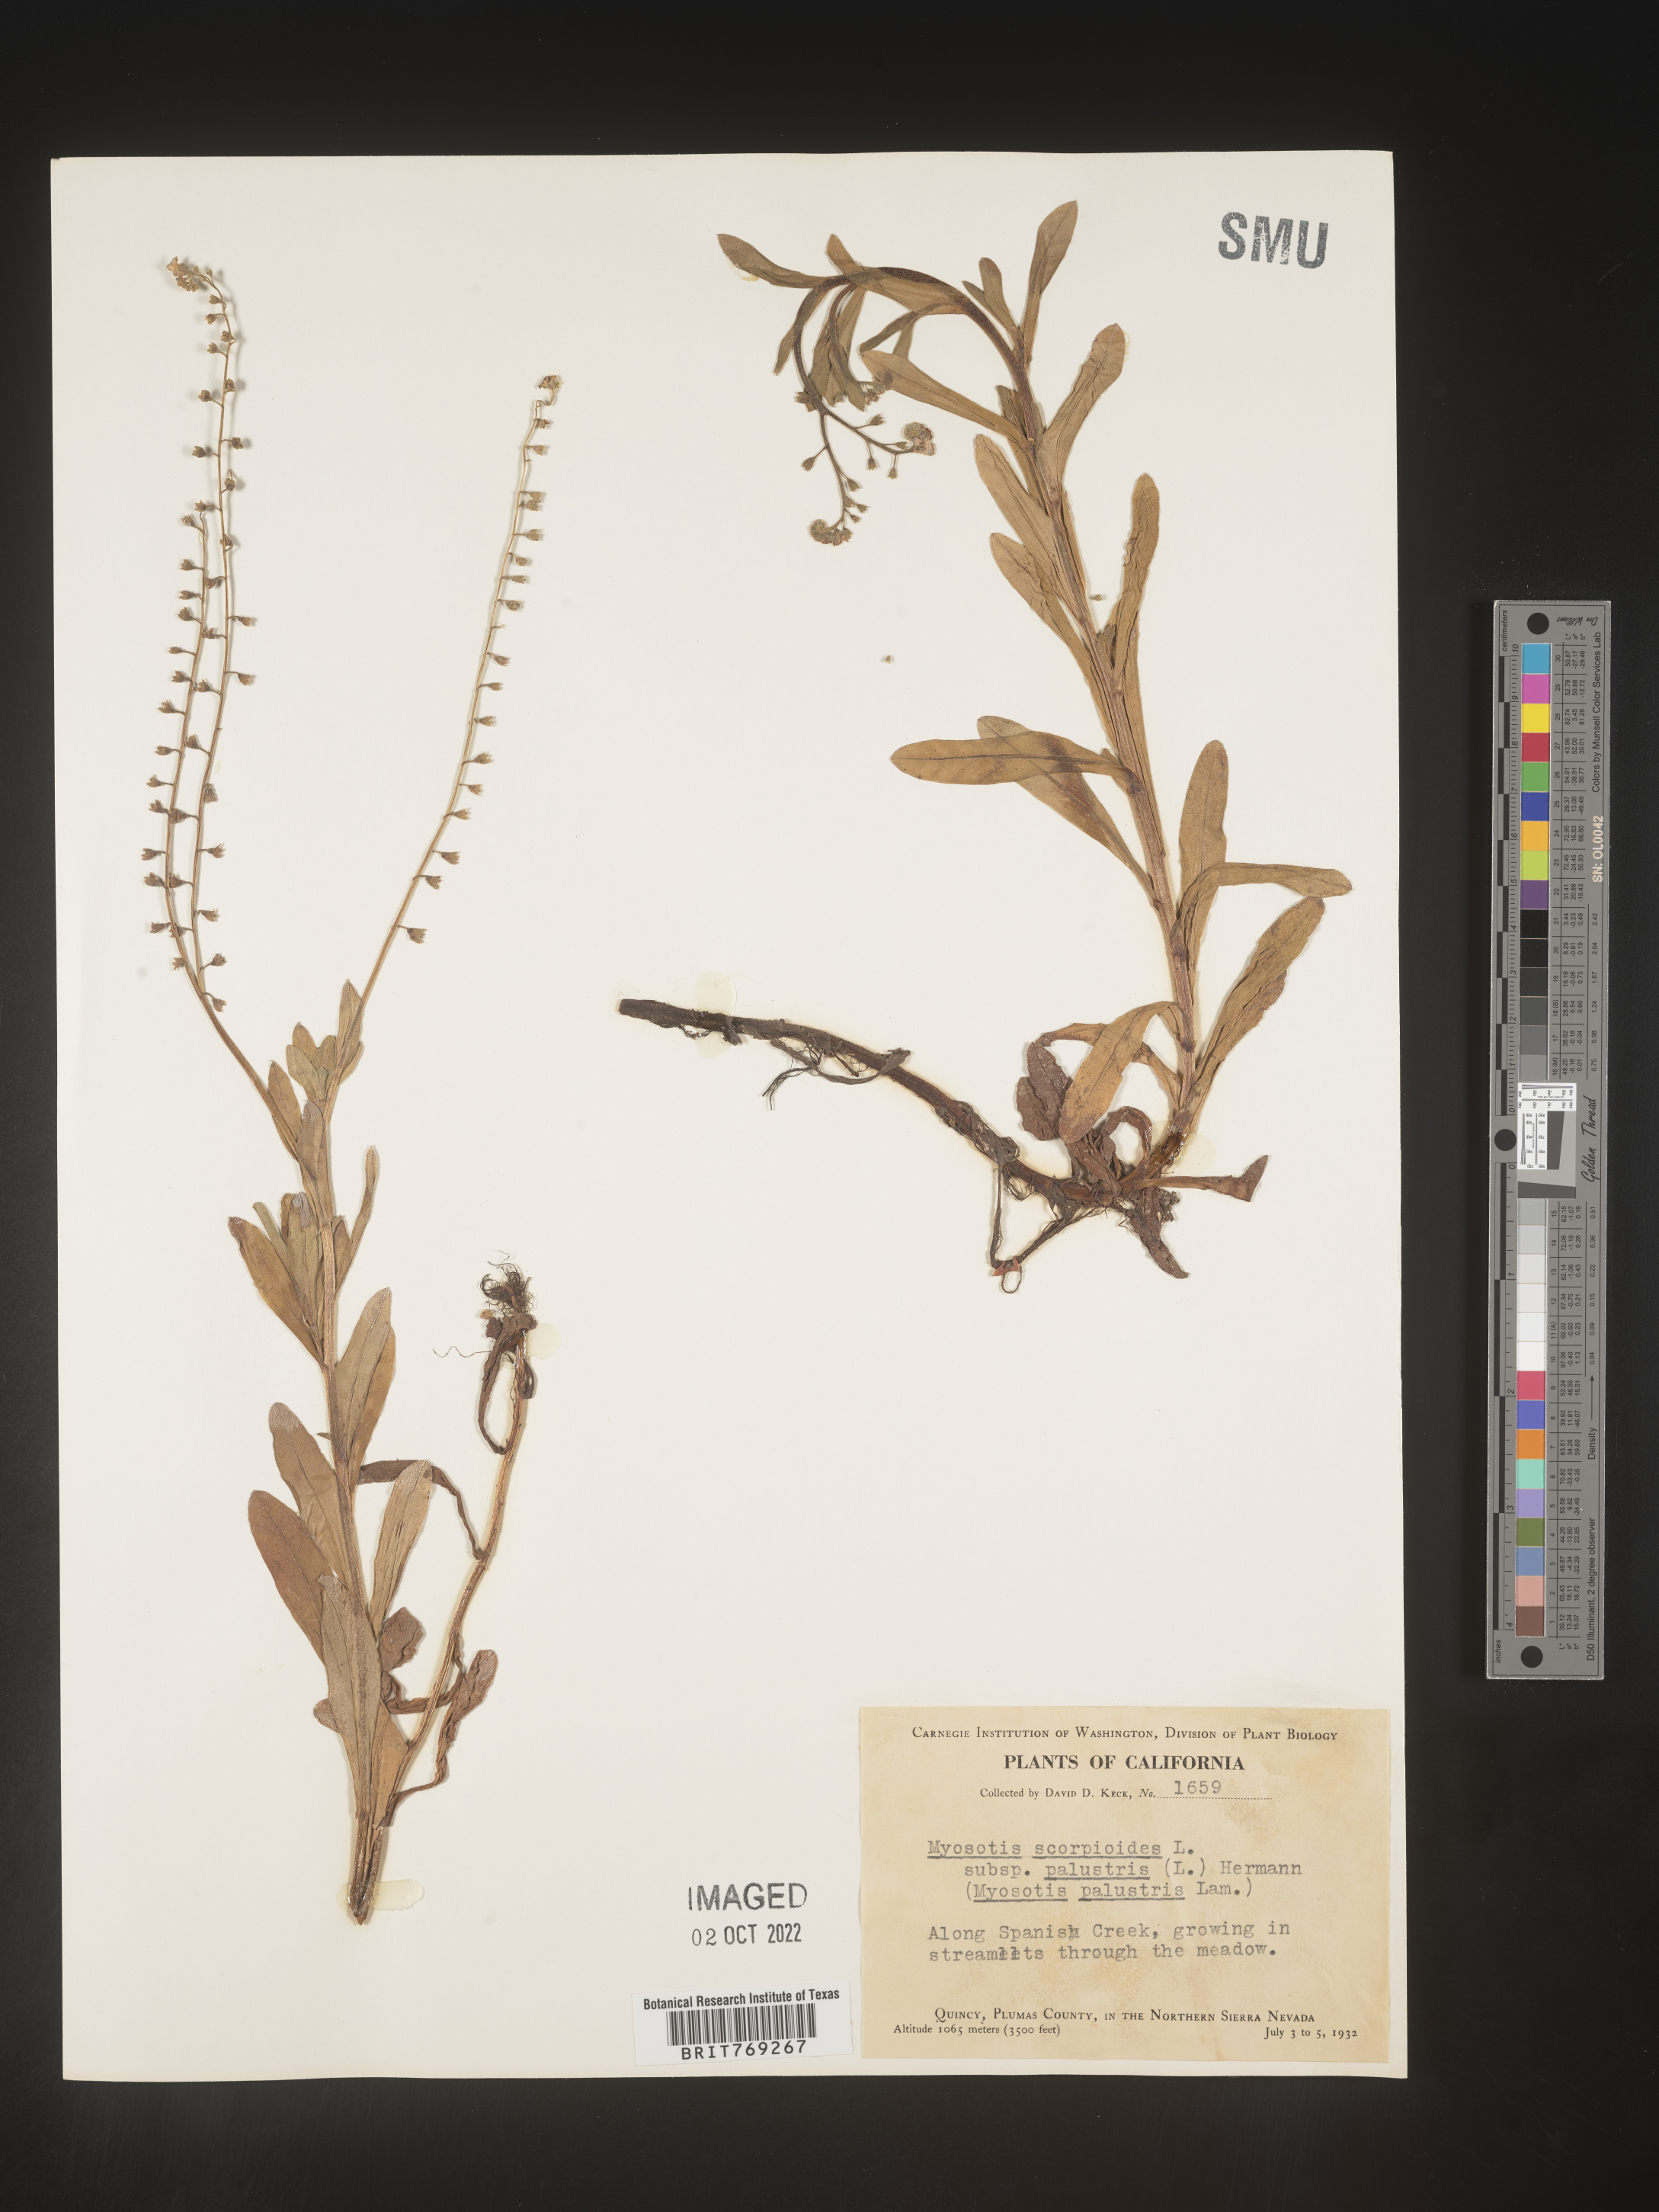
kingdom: Plantae
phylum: Tracheophyta
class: Magnoliopsida
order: Boraginales
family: Boraginaceae
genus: Myosotis
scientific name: Myosotis scorpioides
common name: Water forget-me-not
